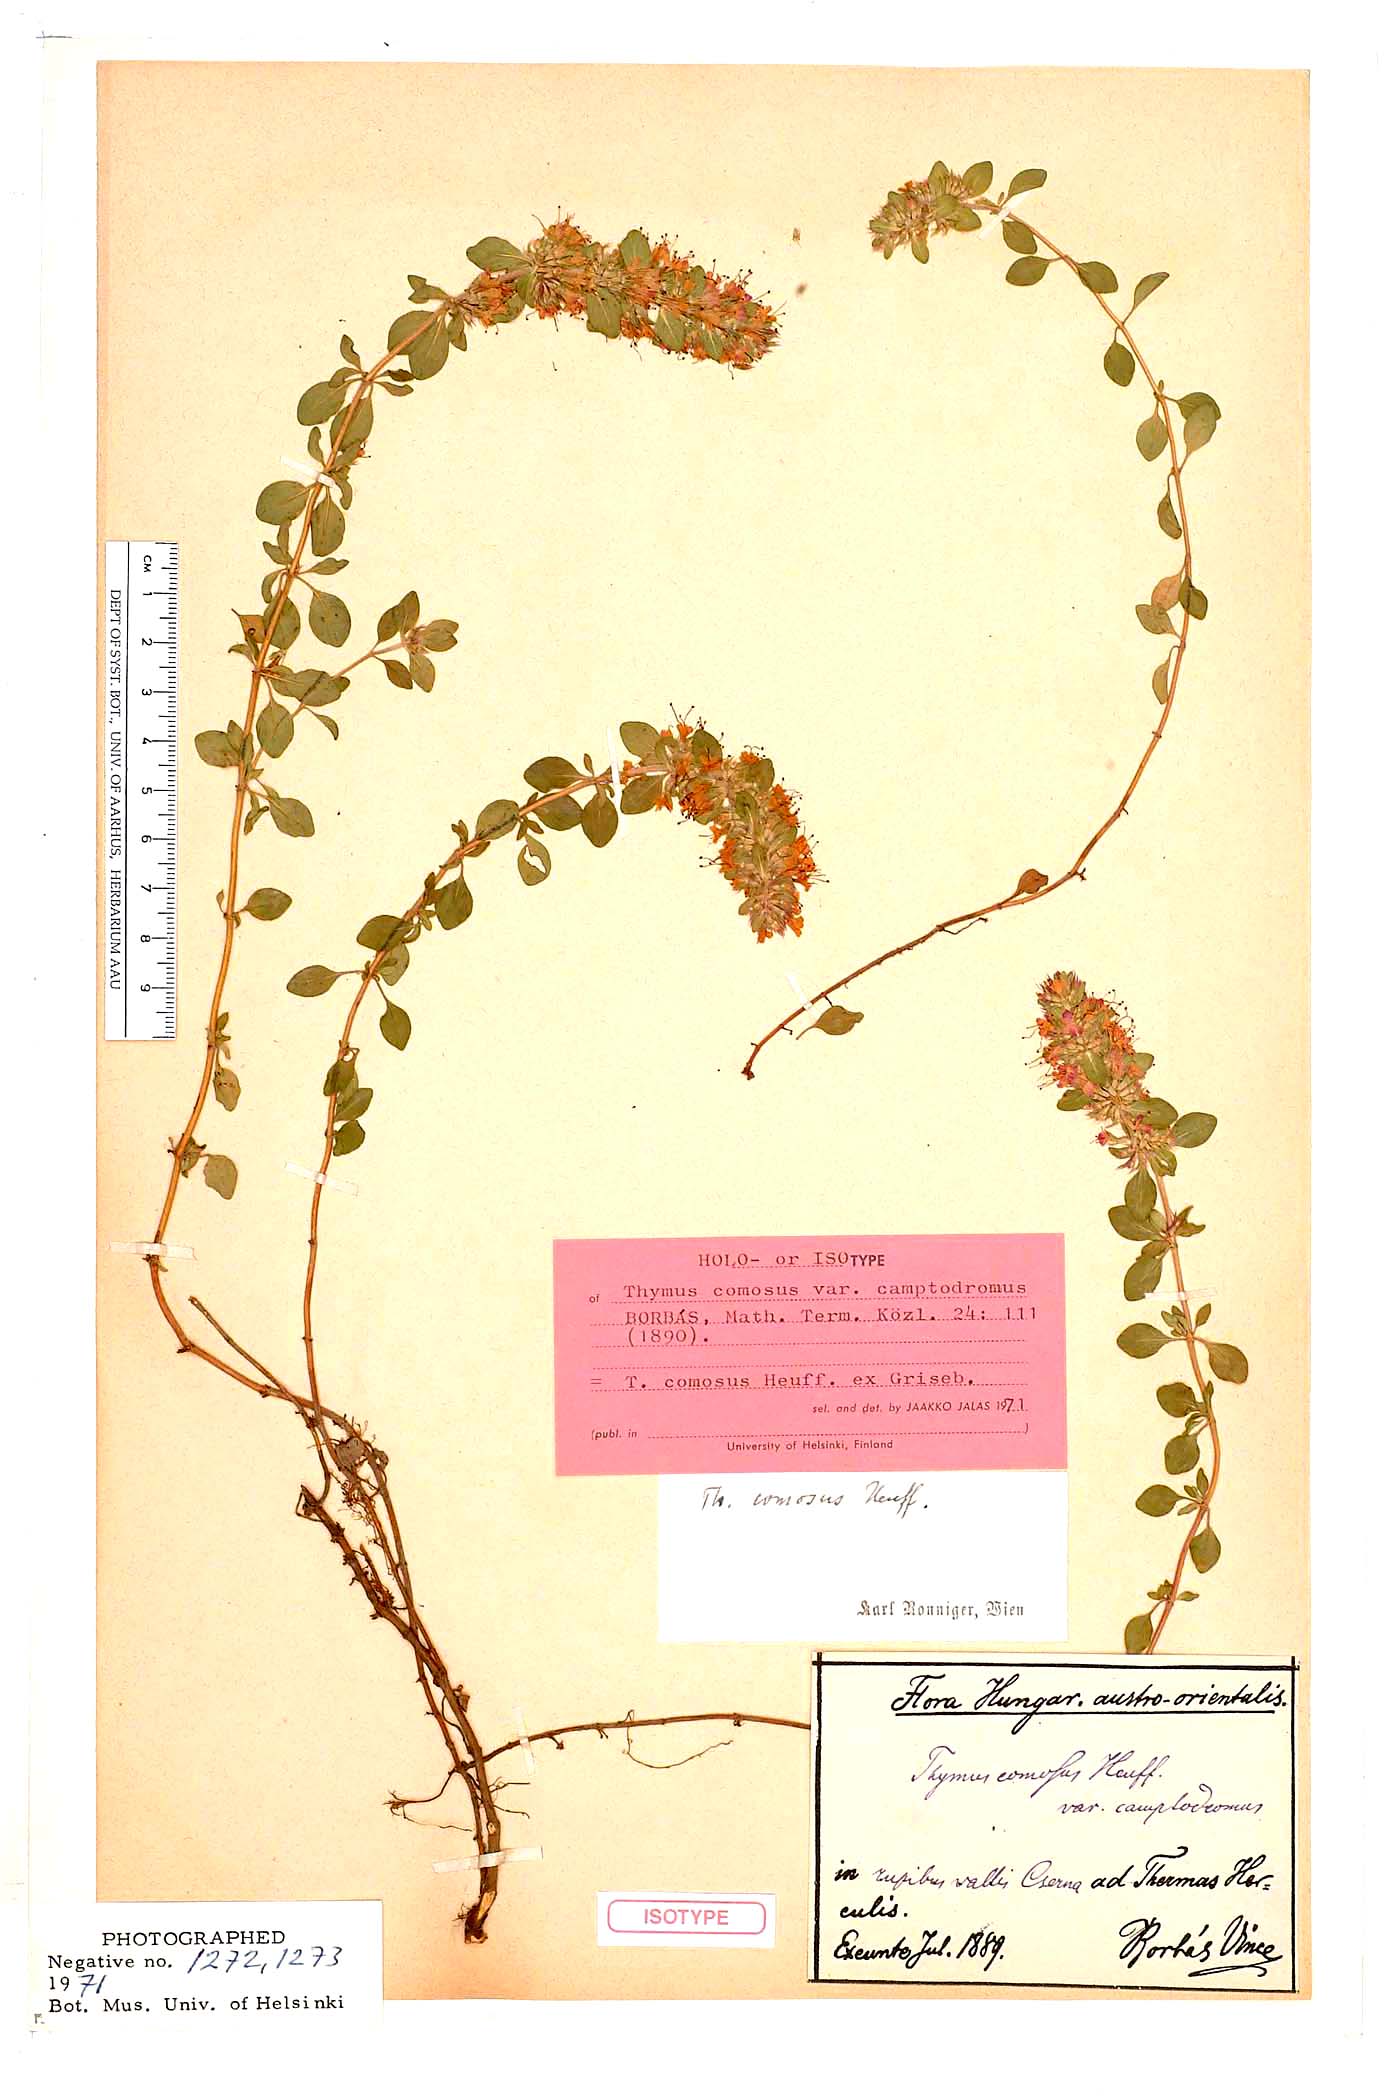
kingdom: Plantae
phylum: Tracheophyta
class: Magnoliopsida
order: Lamiales
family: Lamiaceae
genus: Thymus
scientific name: Thymus comosus
